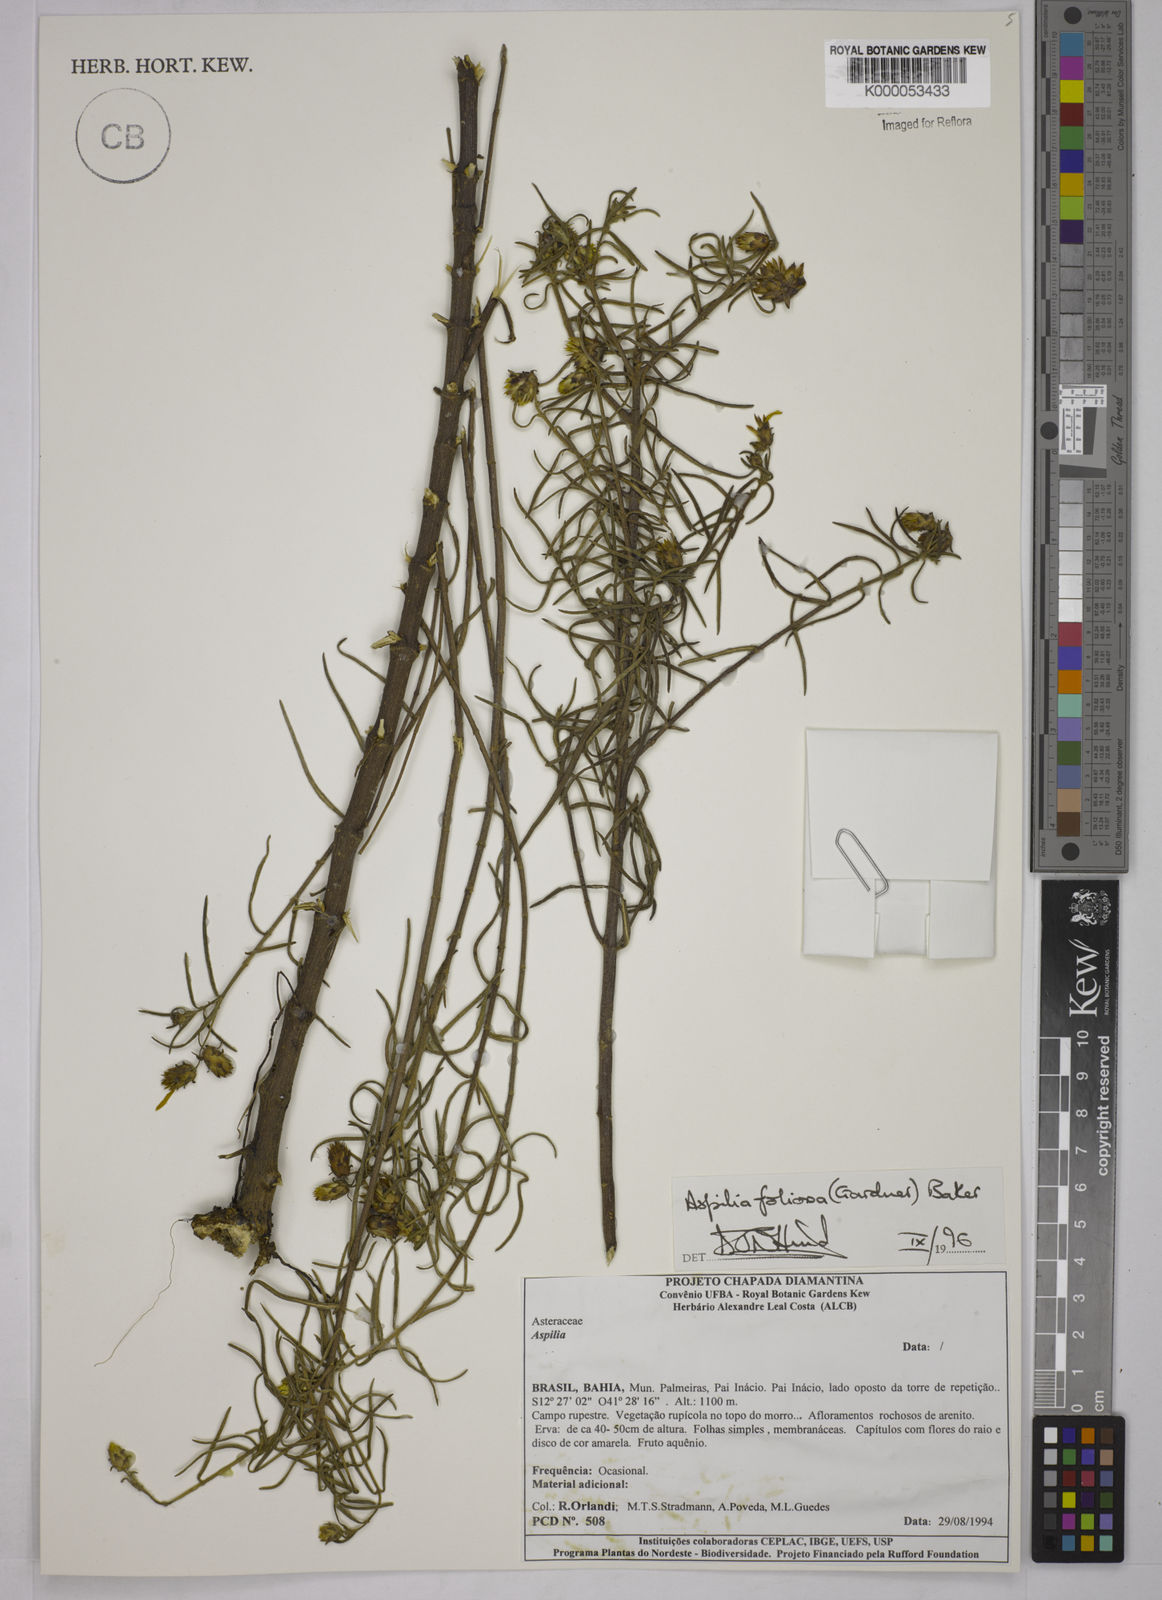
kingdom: Plantae
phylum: Tracheophyta
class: Magnoliopsida
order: Asterales
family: Asteraceae
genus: Aspilia
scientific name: Aspilia
